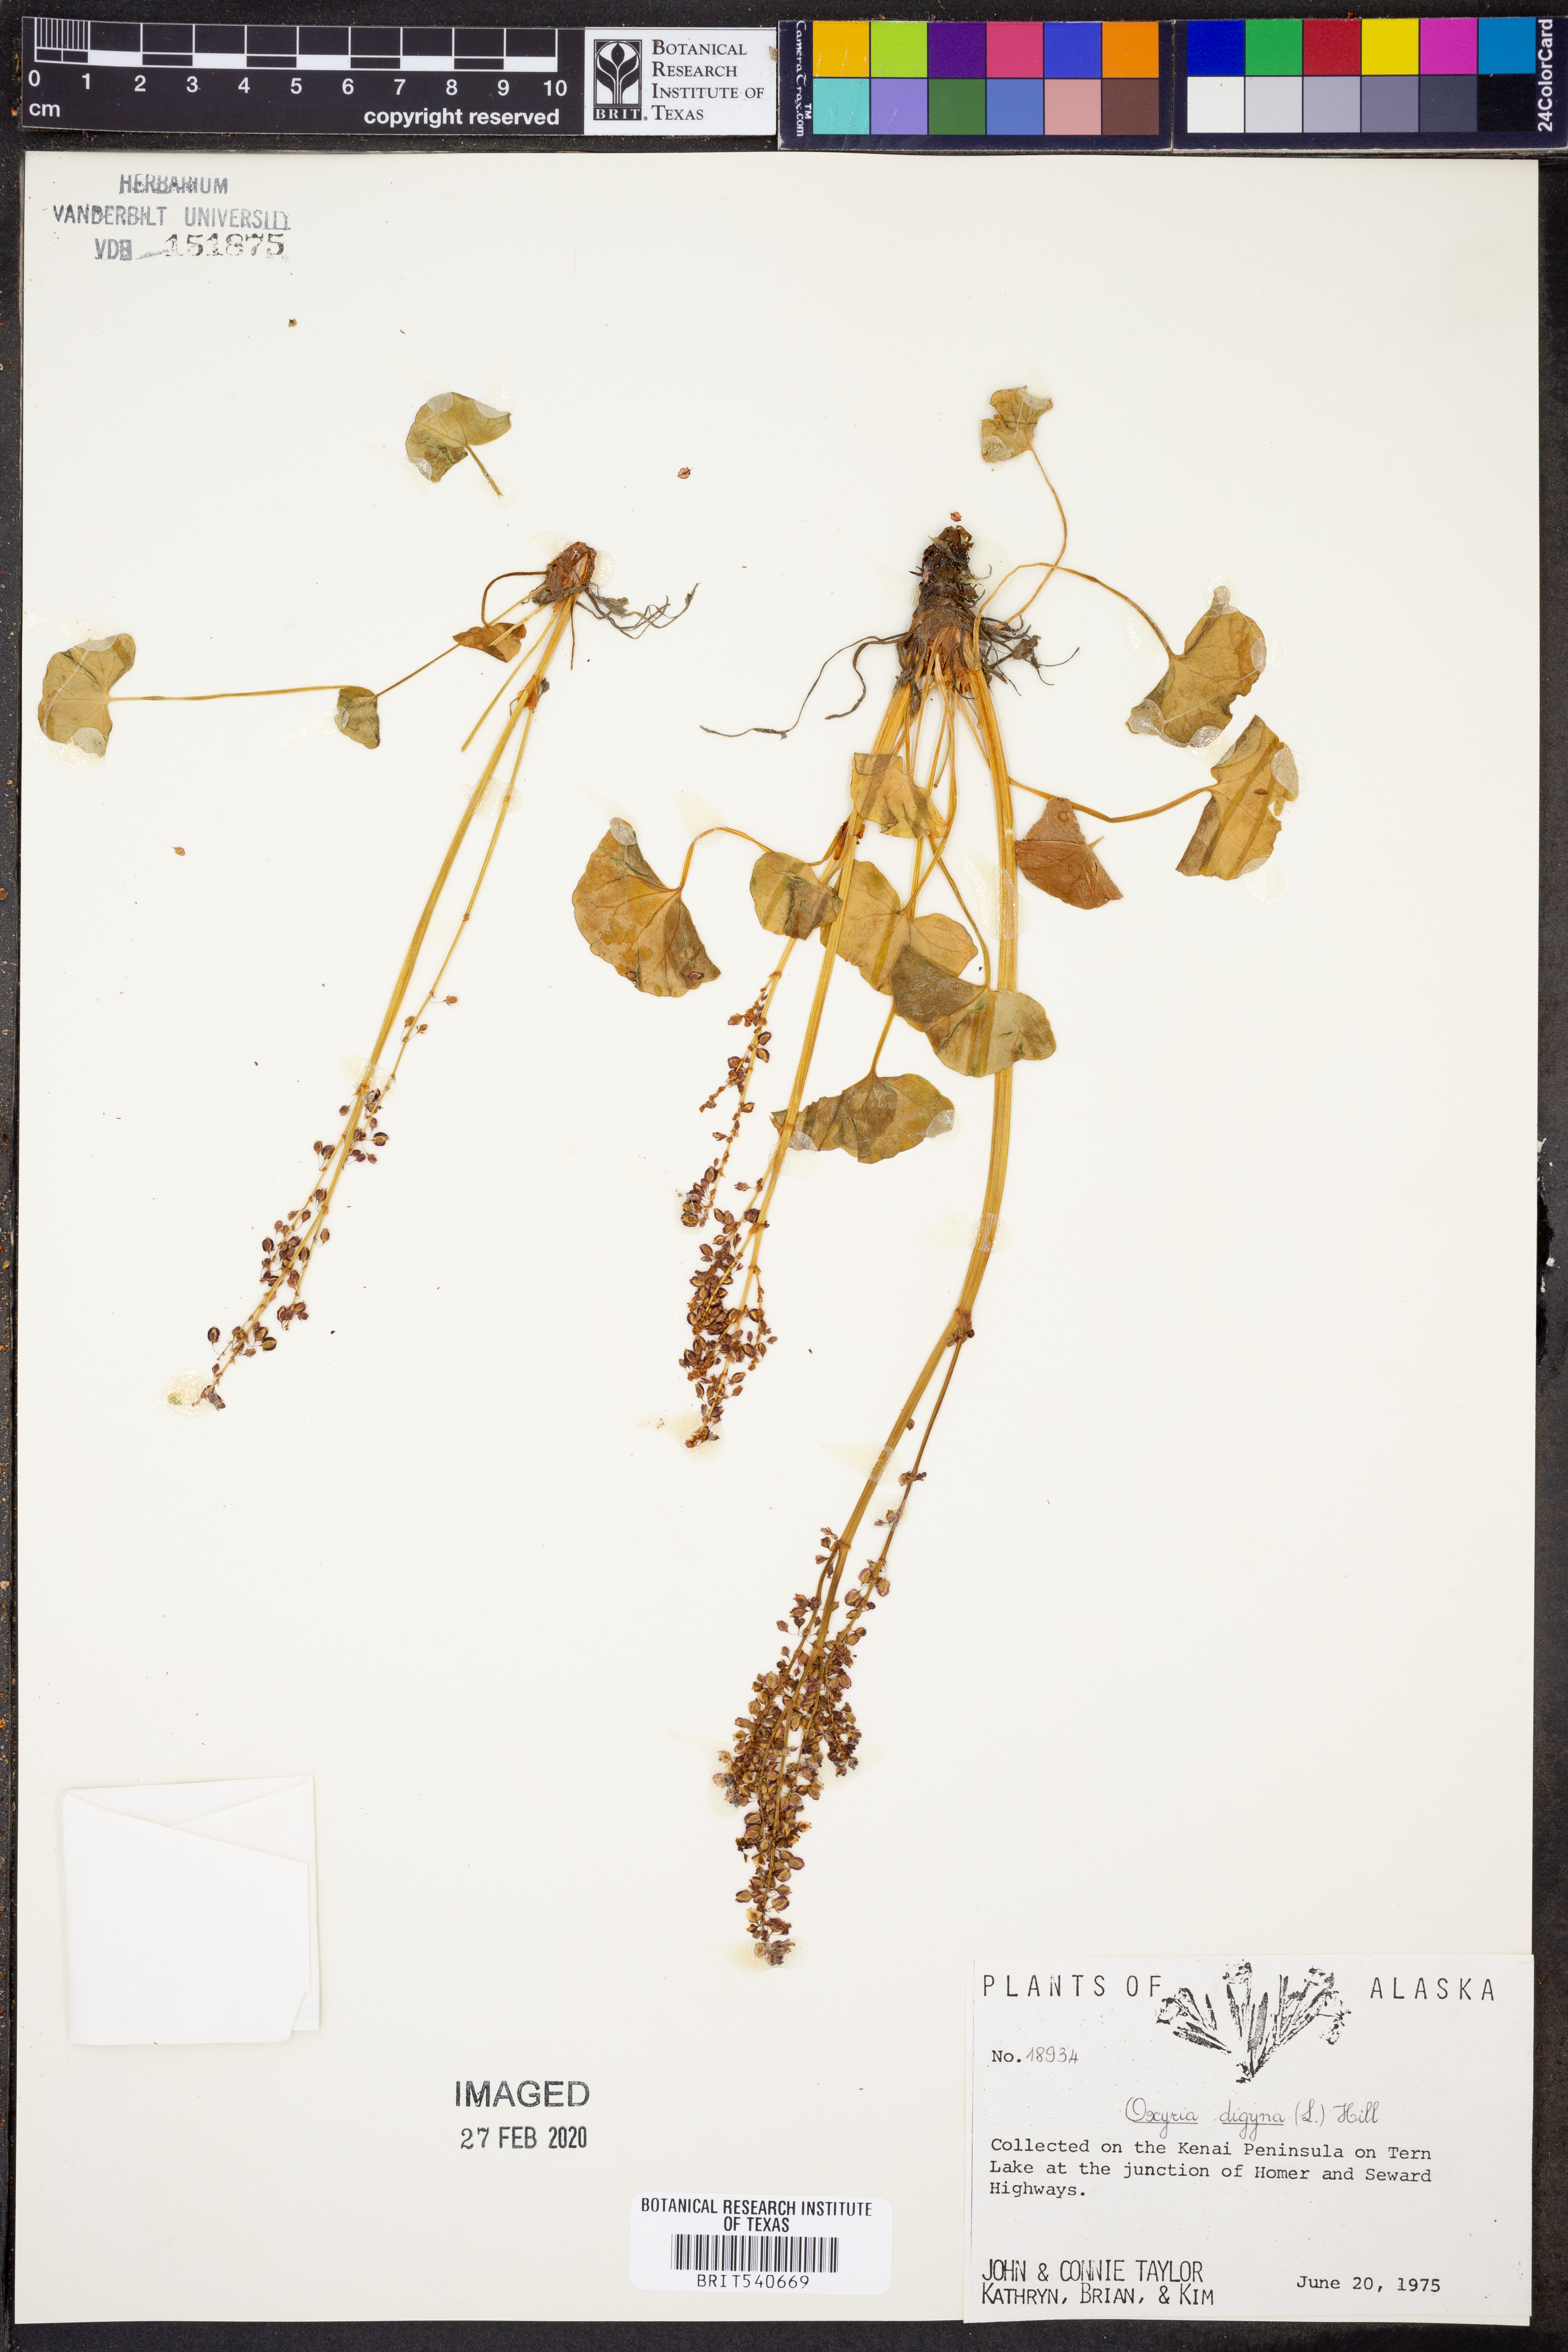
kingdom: Plantae
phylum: Tracheophyta
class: Magnoliopsida
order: Caryophyllales
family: Polygonaceae
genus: Oxyria
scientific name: Oxyria digyna
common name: Alpine mountain-sorrel
